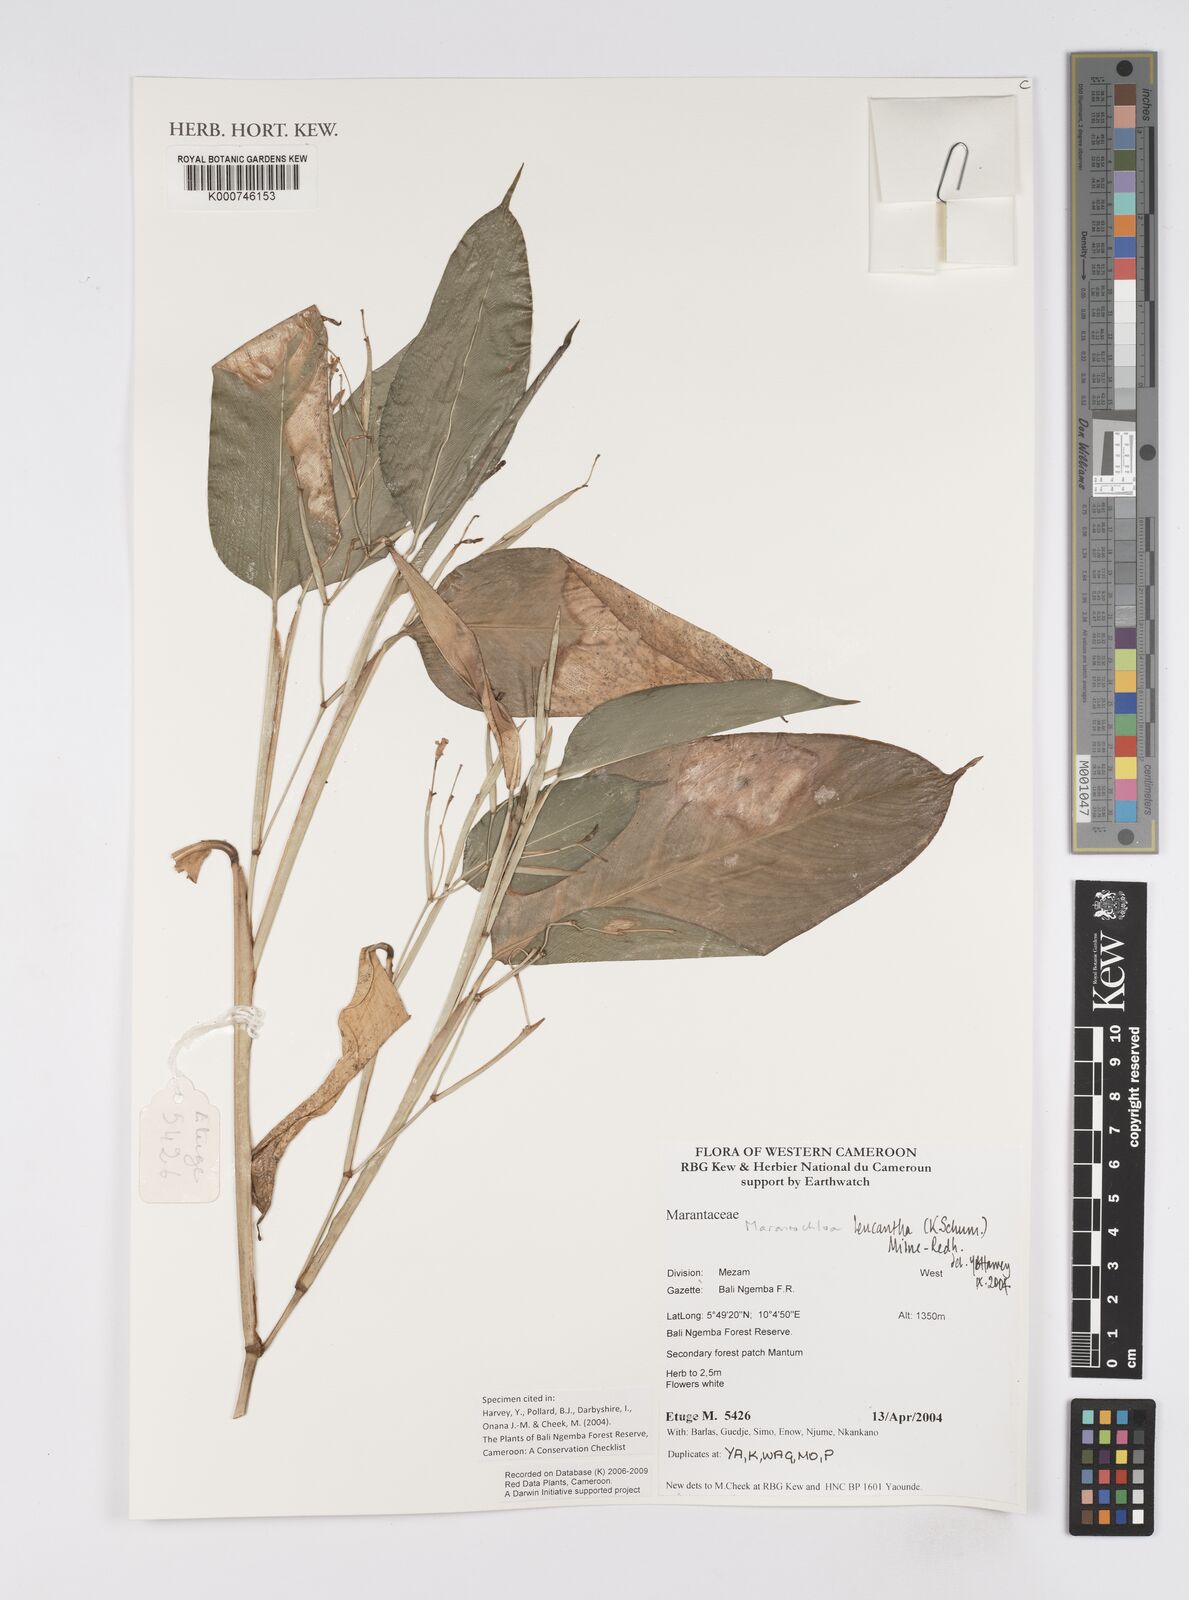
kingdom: Plantae
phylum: Tracheophyta
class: Liliopsida
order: Zingiberales
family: Marantaceae
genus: Marantochloa
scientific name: Marantochloa leucantha
